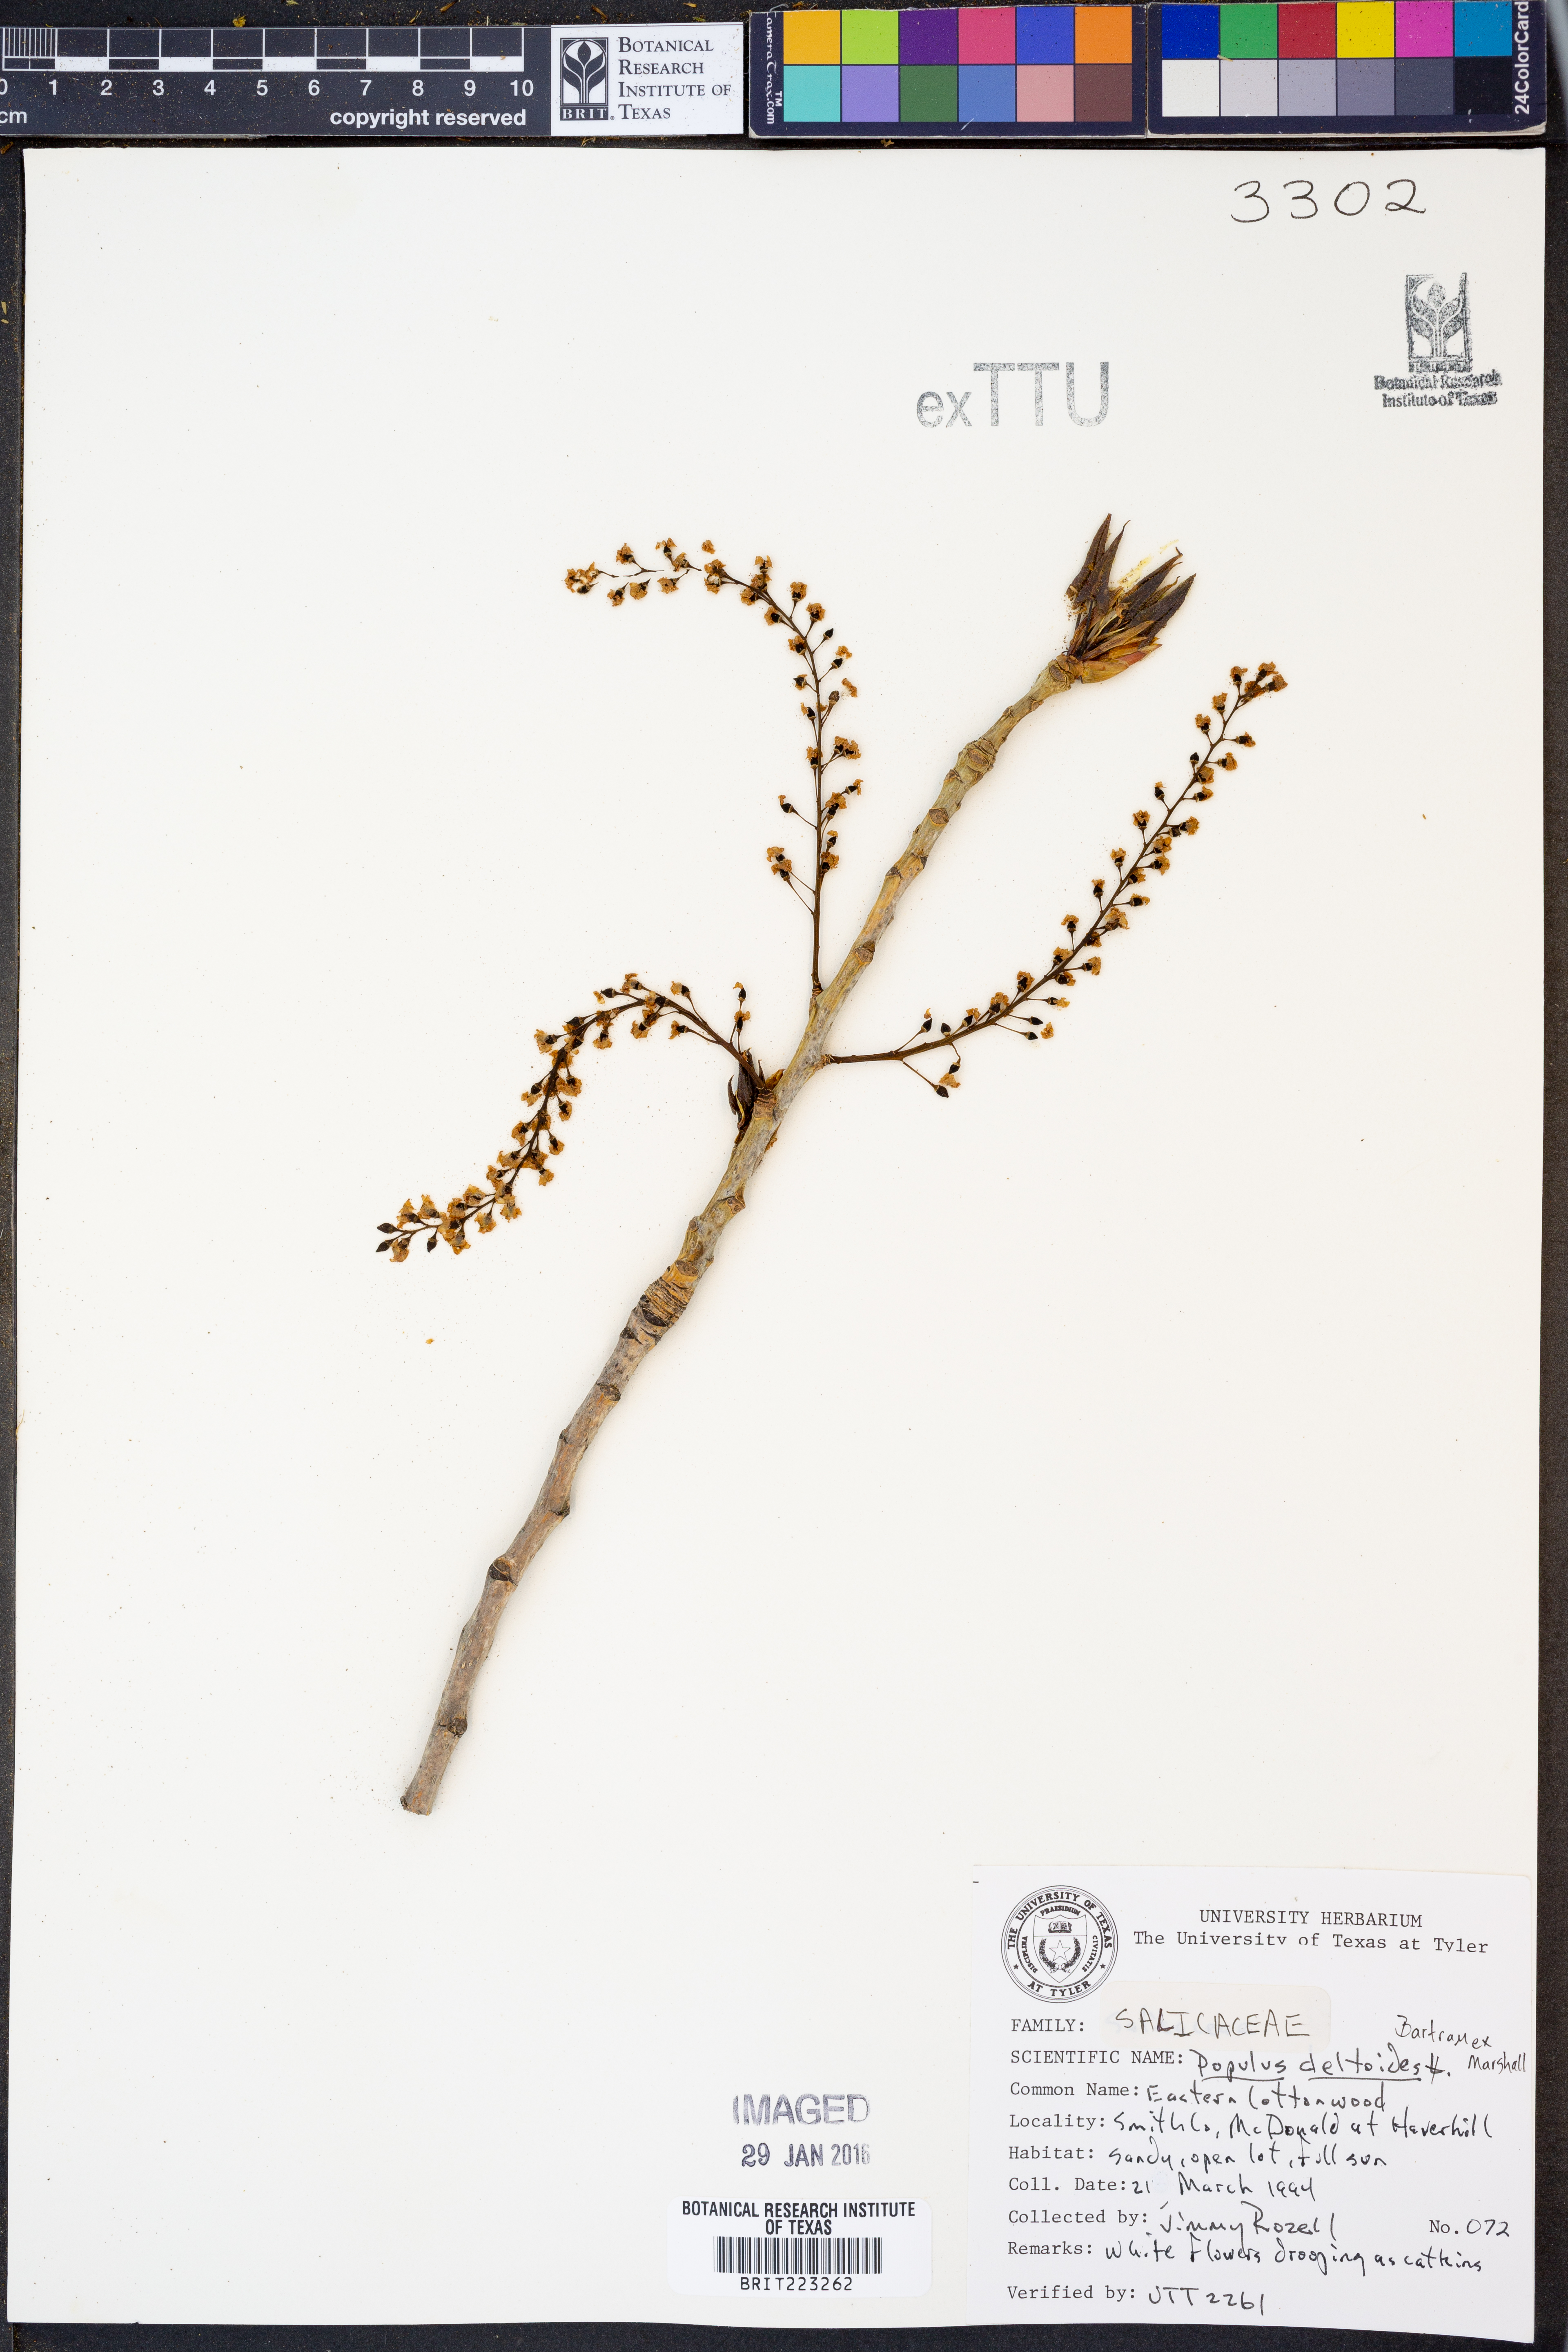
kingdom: Plantae
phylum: Tracheophyta
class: Magnoliopsida
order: Malpighiales
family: Salicaceae
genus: Populus
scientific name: Populus deltoides
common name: Eastern cottonwood
